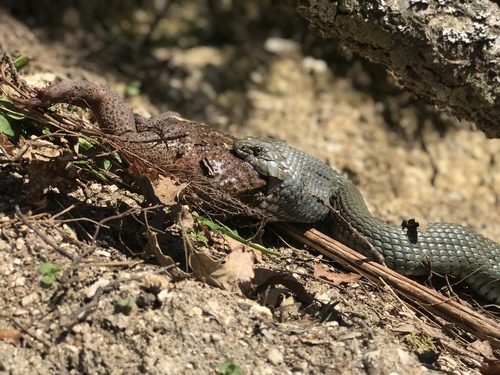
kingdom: Animalia
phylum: Chordata
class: Squamata
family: Colubridae
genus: Natrix
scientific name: Natrix astreptophora
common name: Red-eyed grass snake
